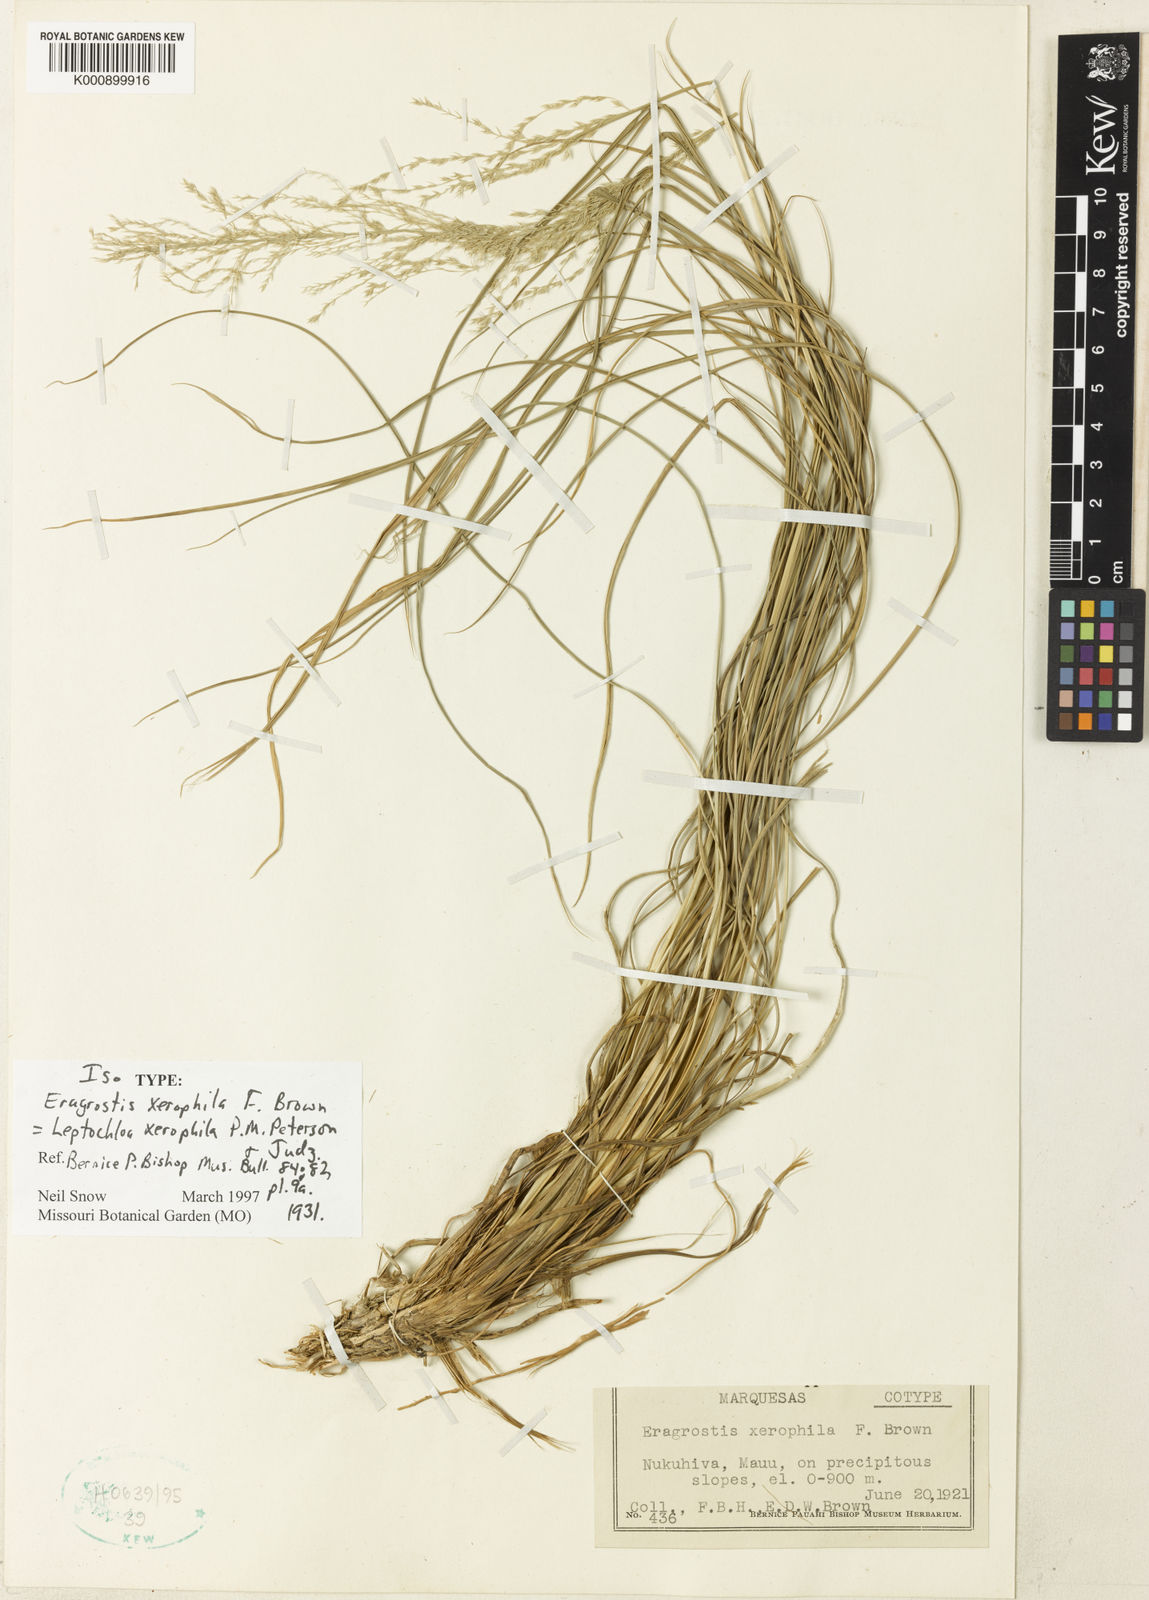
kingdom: Plantae
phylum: Tracheophyta
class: Liliopsida
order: Poales
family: Poaceae
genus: Dinebra
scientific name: Dinebra xerophila
